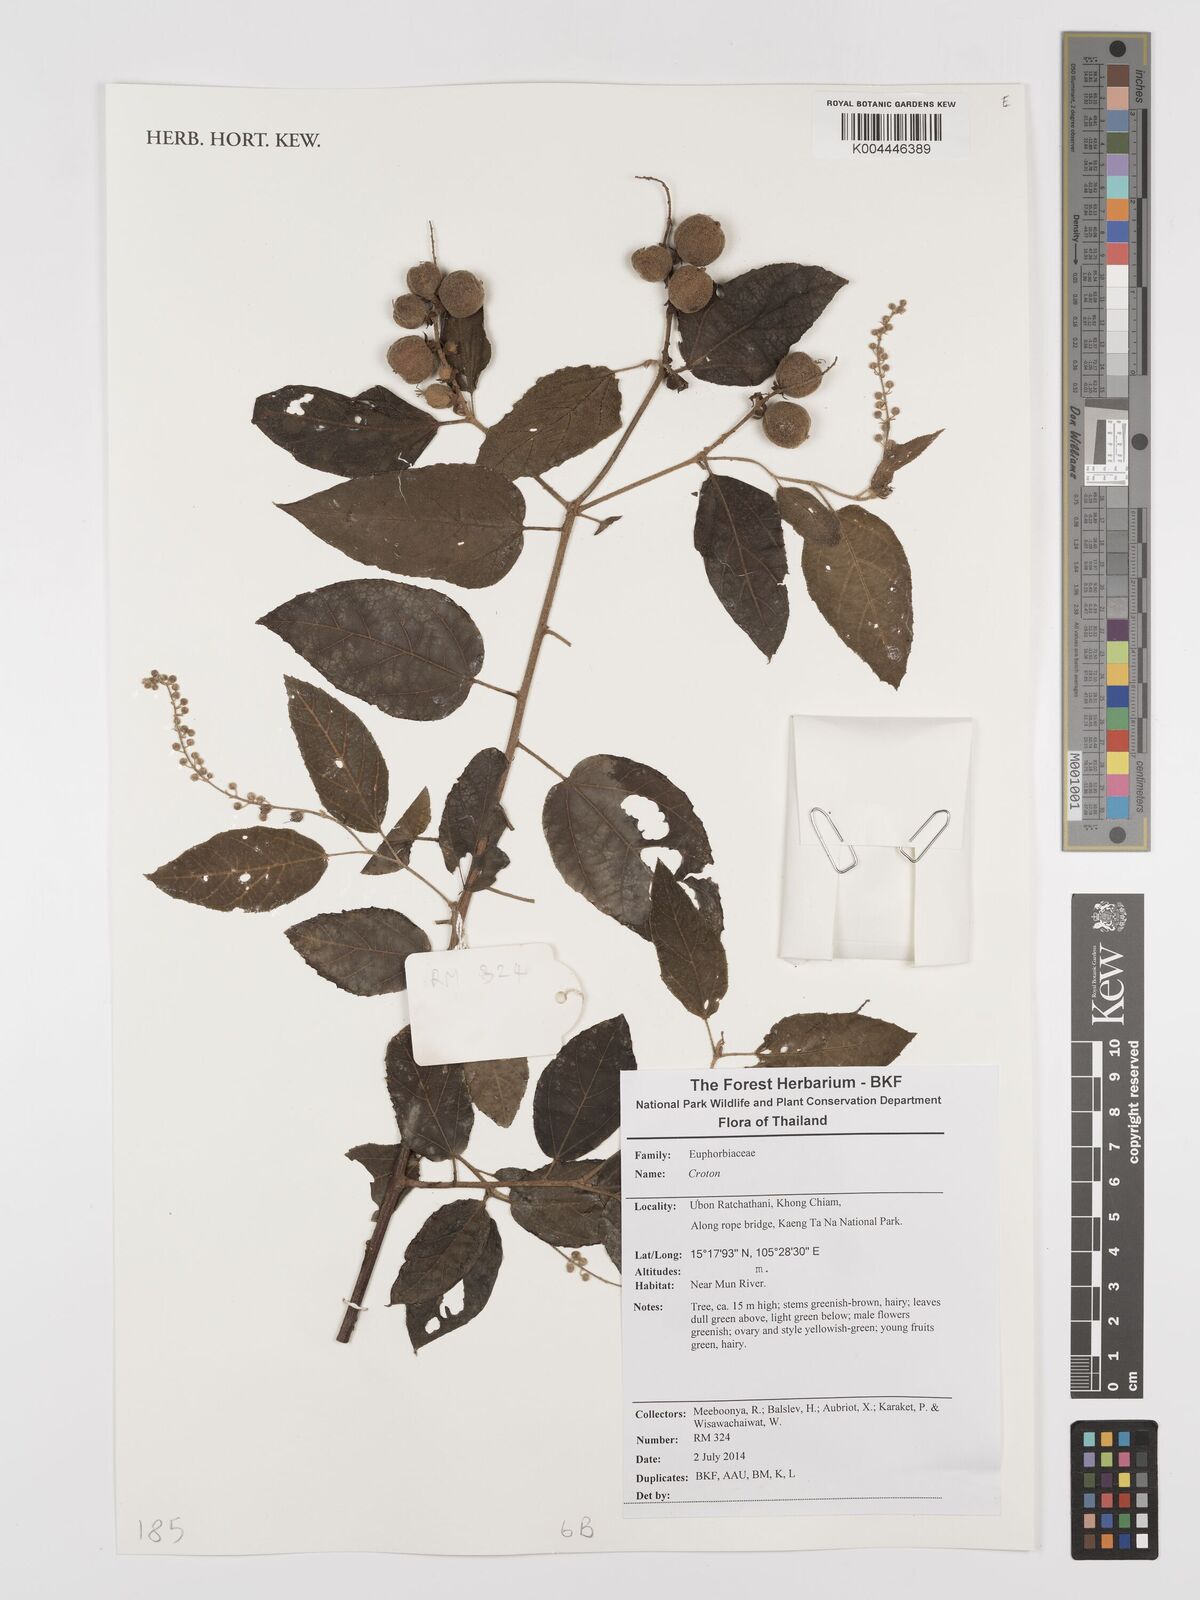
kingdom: Plantae
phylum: Tracheophyta
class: Magnoliopsida
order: Malpighiales
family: Euphorbiaceae
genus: Croton
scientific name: Croton
